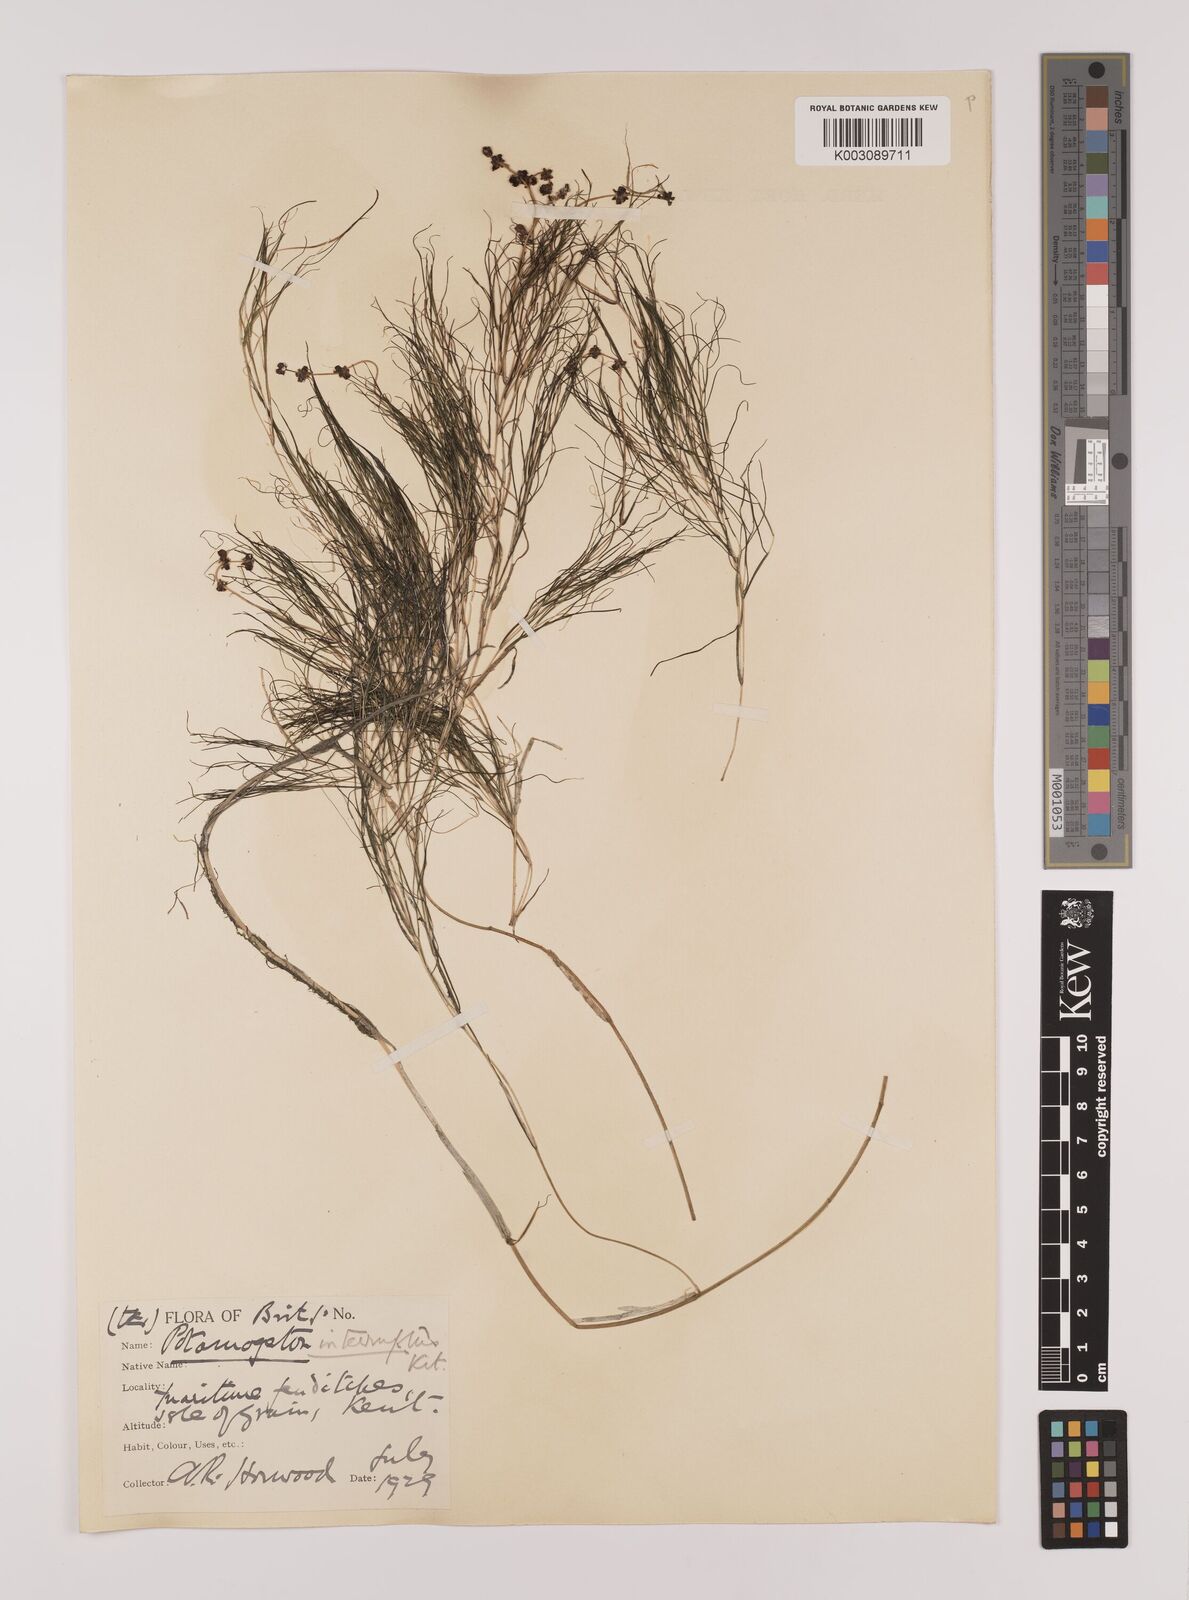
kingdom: Plantae
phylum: Tracheophyta
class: Liliopsida
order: Alismatales
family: Potamogetonaceae
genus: Stuckenia
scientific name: Stuckenia pectinata
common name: Sago pondweed
